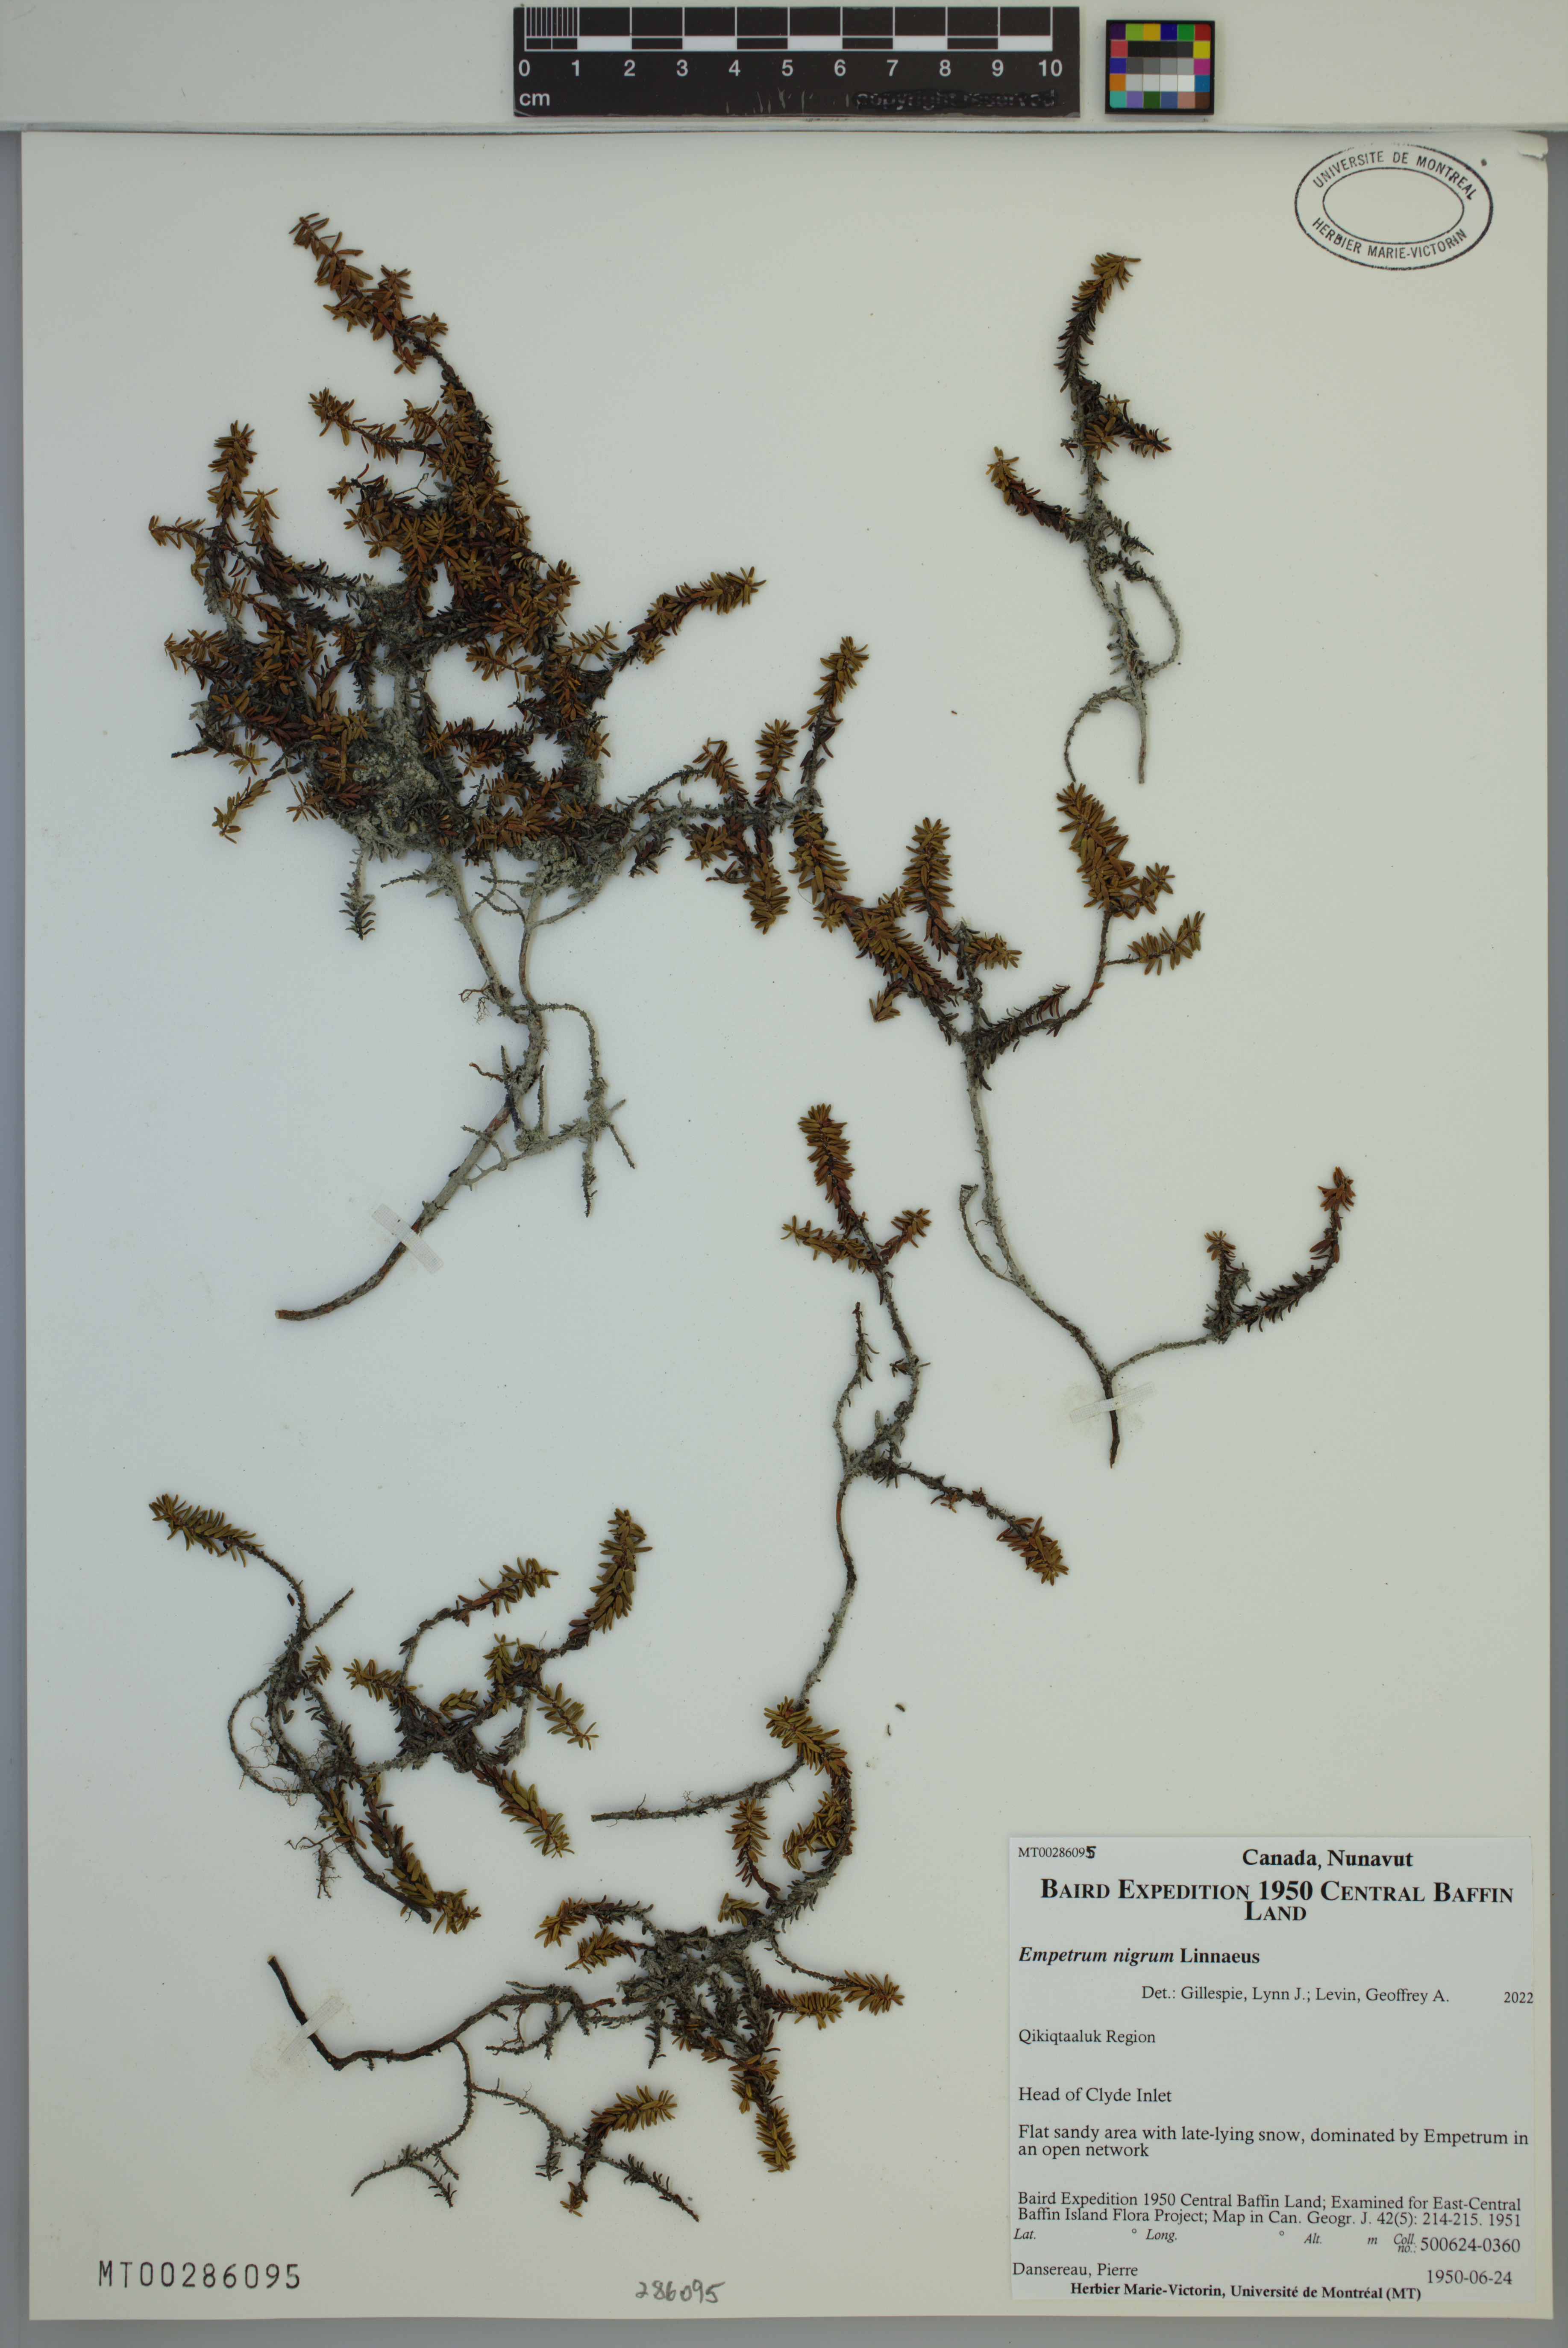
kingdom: Plantae
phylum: Tracheophyta
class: Magnoliopsida
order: Ericales
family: Ericaceae
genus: Empetrum
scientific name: Empetrum nigrum
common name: Black crowberry
